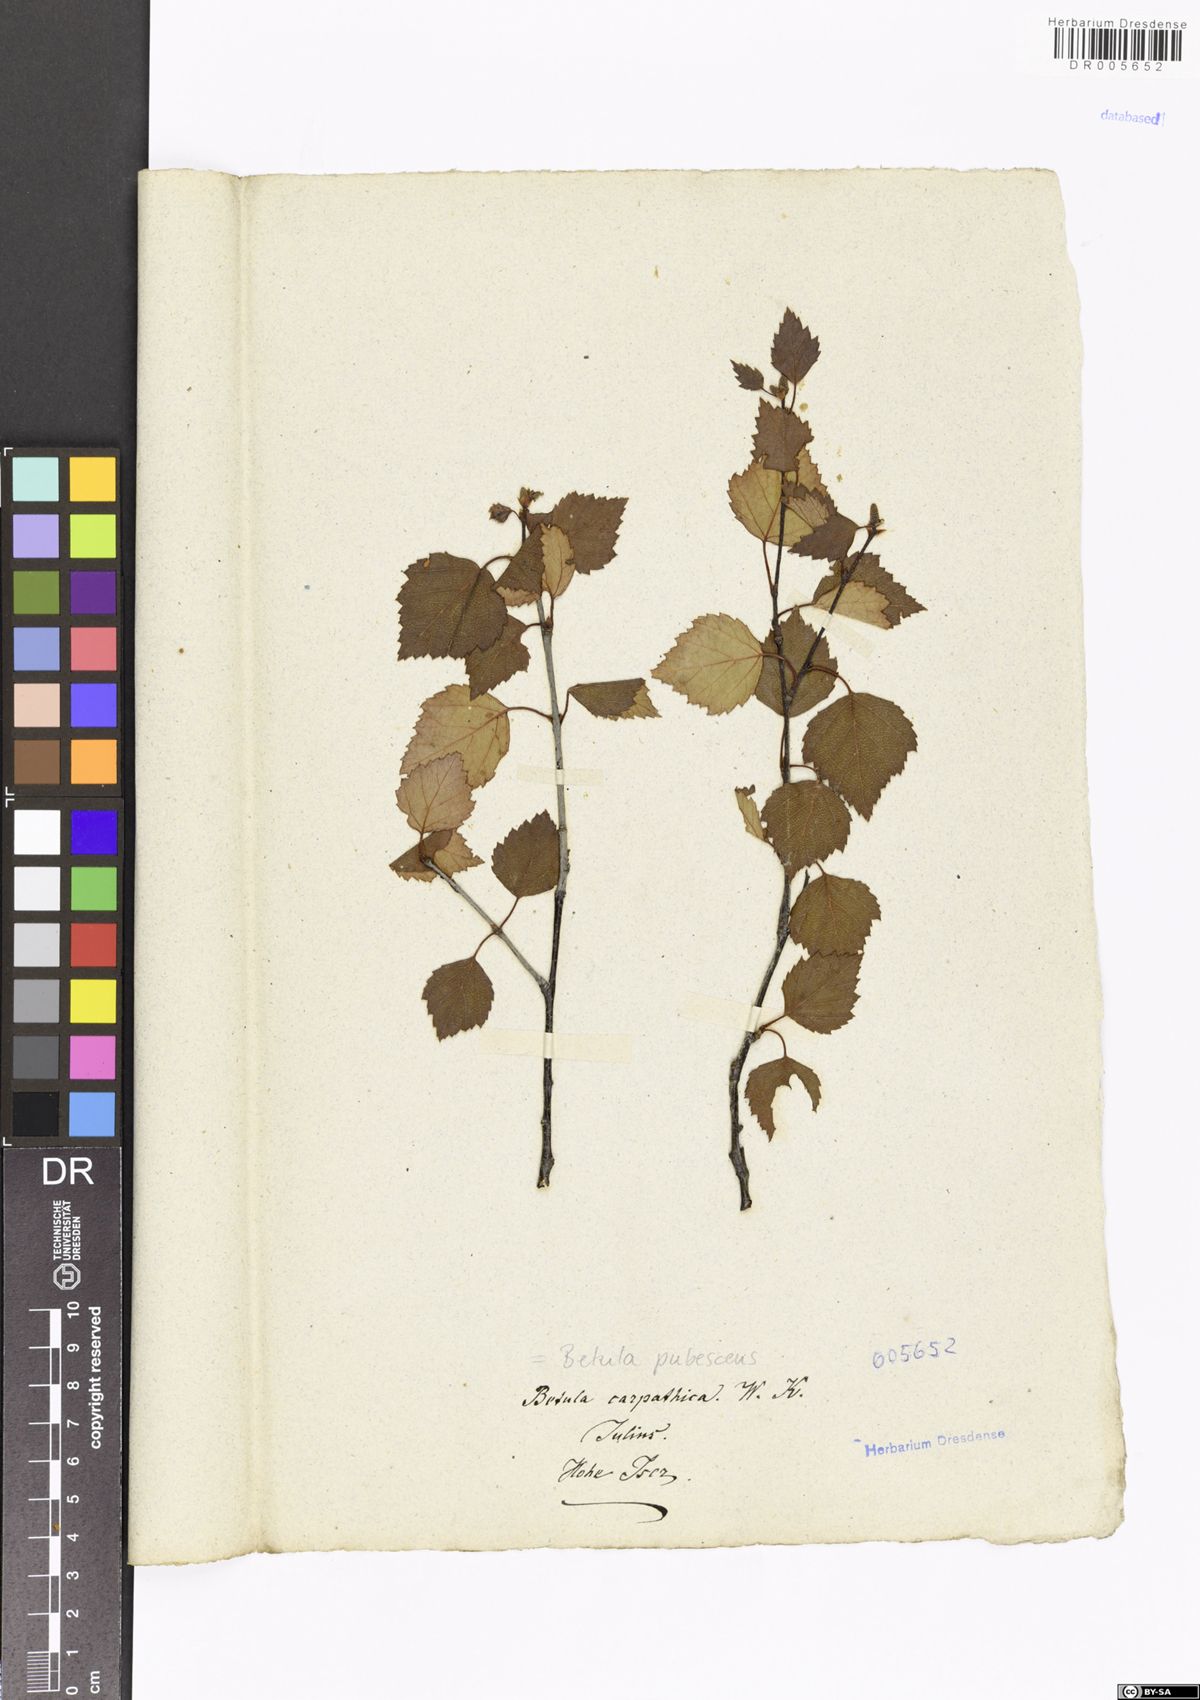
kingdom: Plantae
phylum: Tracheophyta
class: Magnoliopsida
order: Fagales
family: Betulaceae
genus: Betula
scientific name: Betula pubescens
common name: Downy birch
